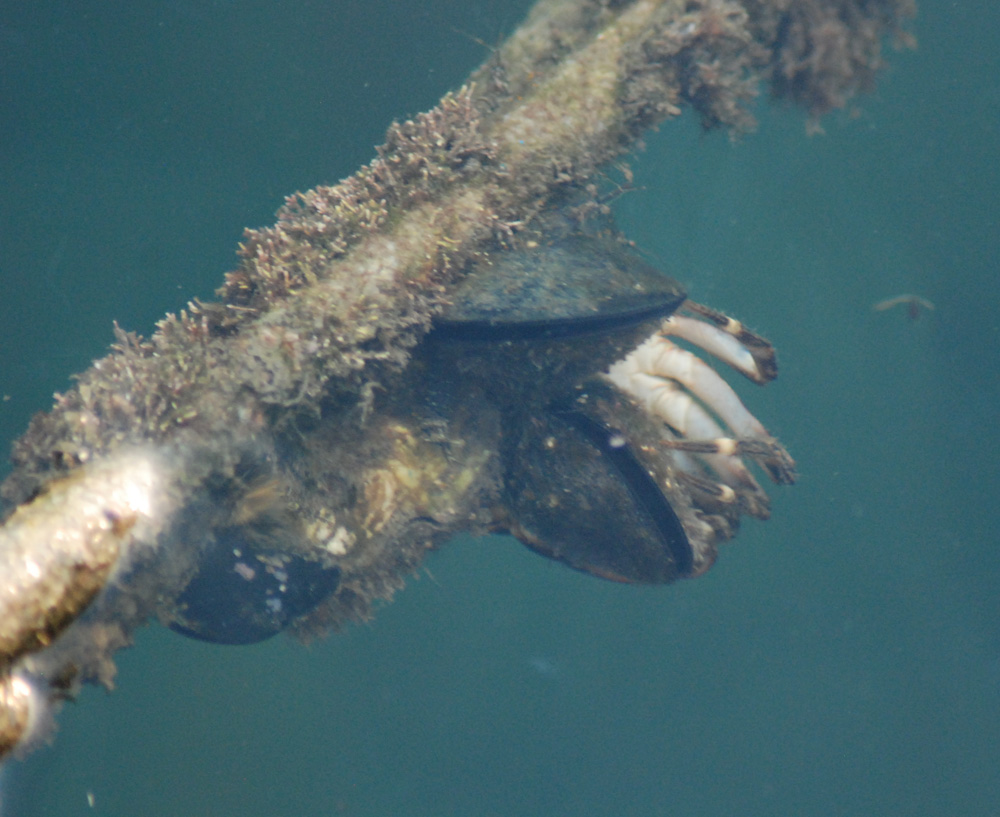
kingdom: Animalia
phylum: Mollusca
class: Bivalvia
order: Mytilida
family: Mytilidae
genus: Mytilus
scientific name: Mytilus galloprovincialis
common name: Mediterranean mussel
